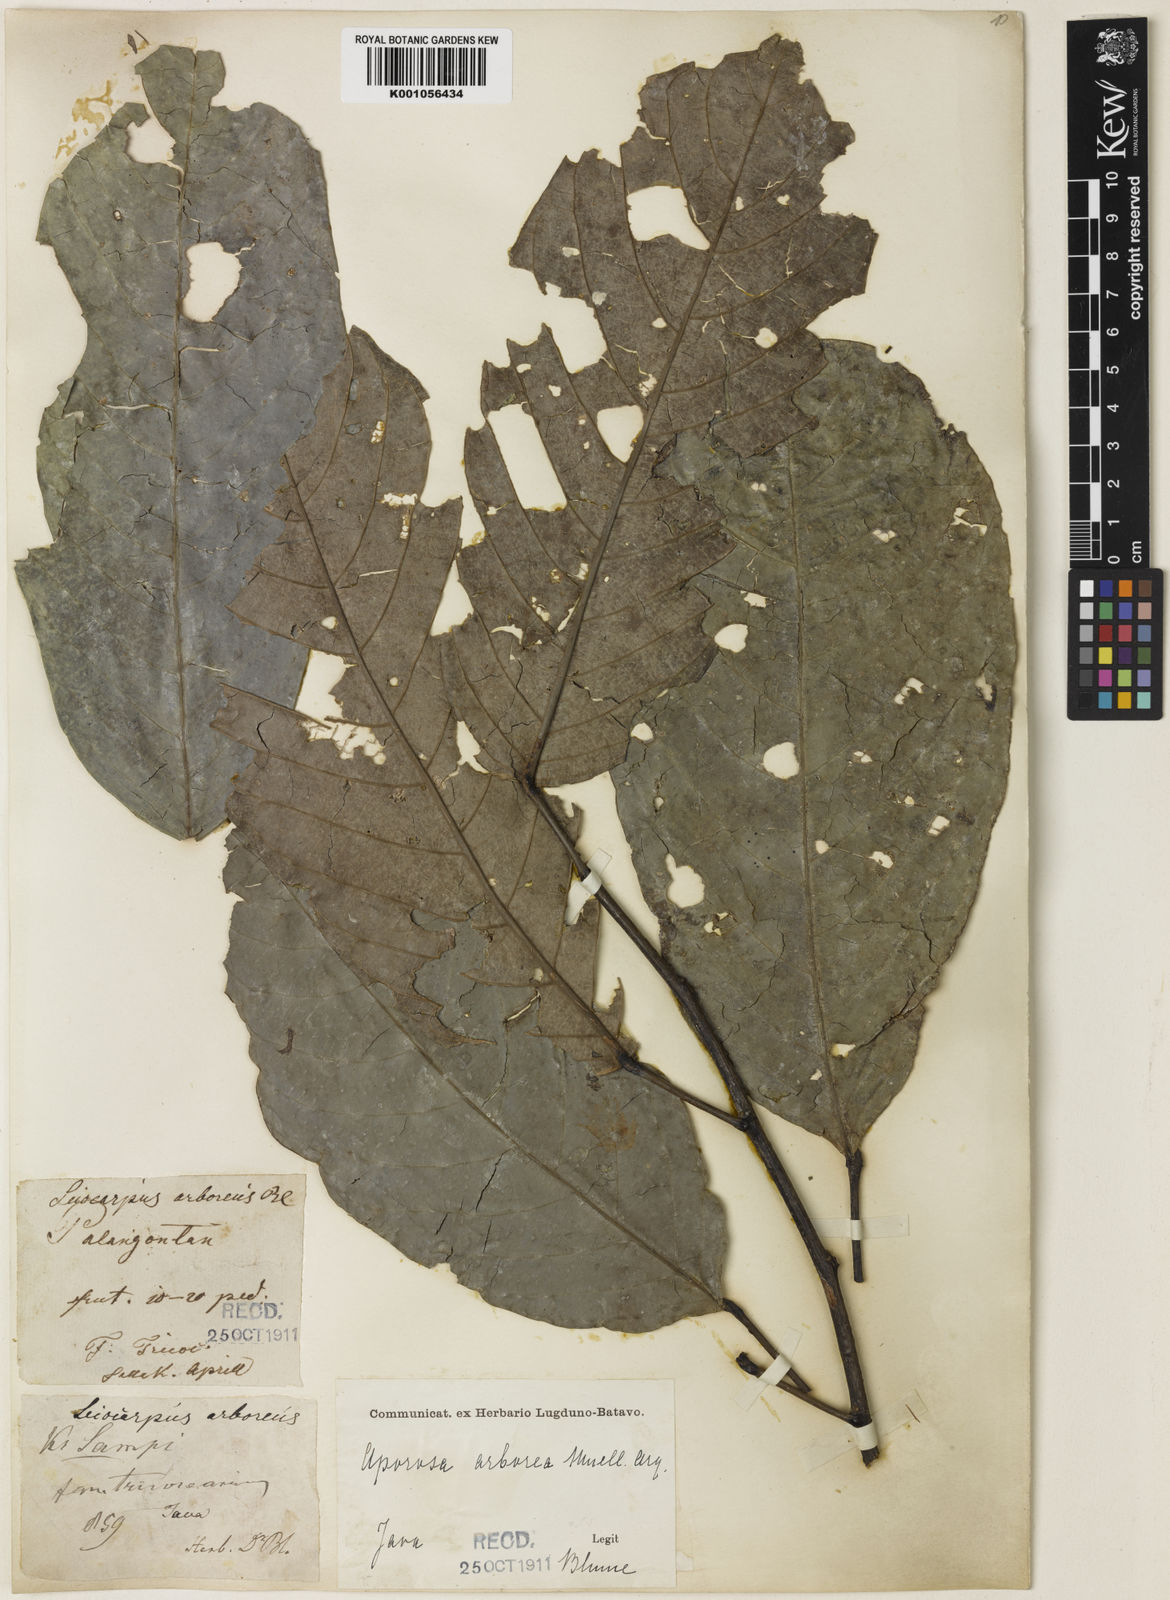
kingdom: Plantae
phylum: Tracheophyta
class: Magnoliopsida
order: Malpighiales
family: Phyllanthaceae
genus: Aporosa
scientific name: Aporosa
